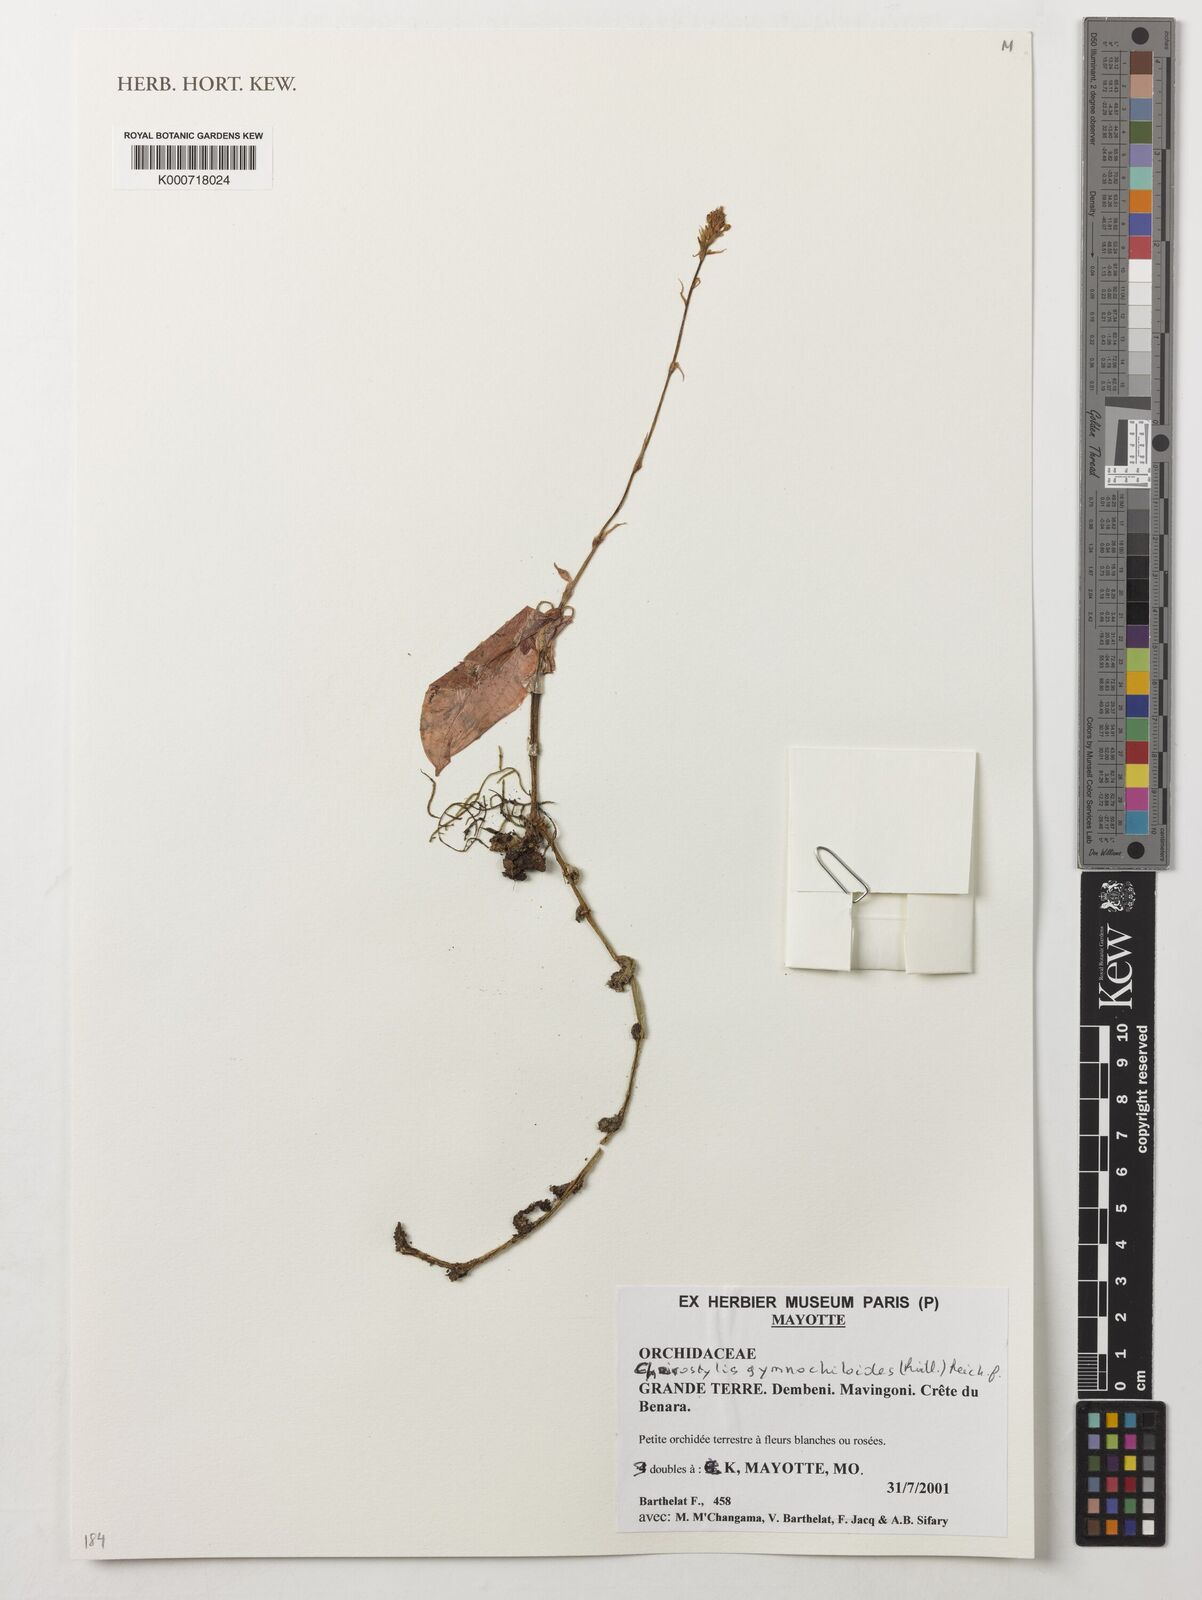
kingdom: Plantae
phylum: Tracheophyta
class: Liliopsida
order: Asparagales
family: Orchidaceae
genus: Cheirostylis
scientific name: Cheirostylis nuda
